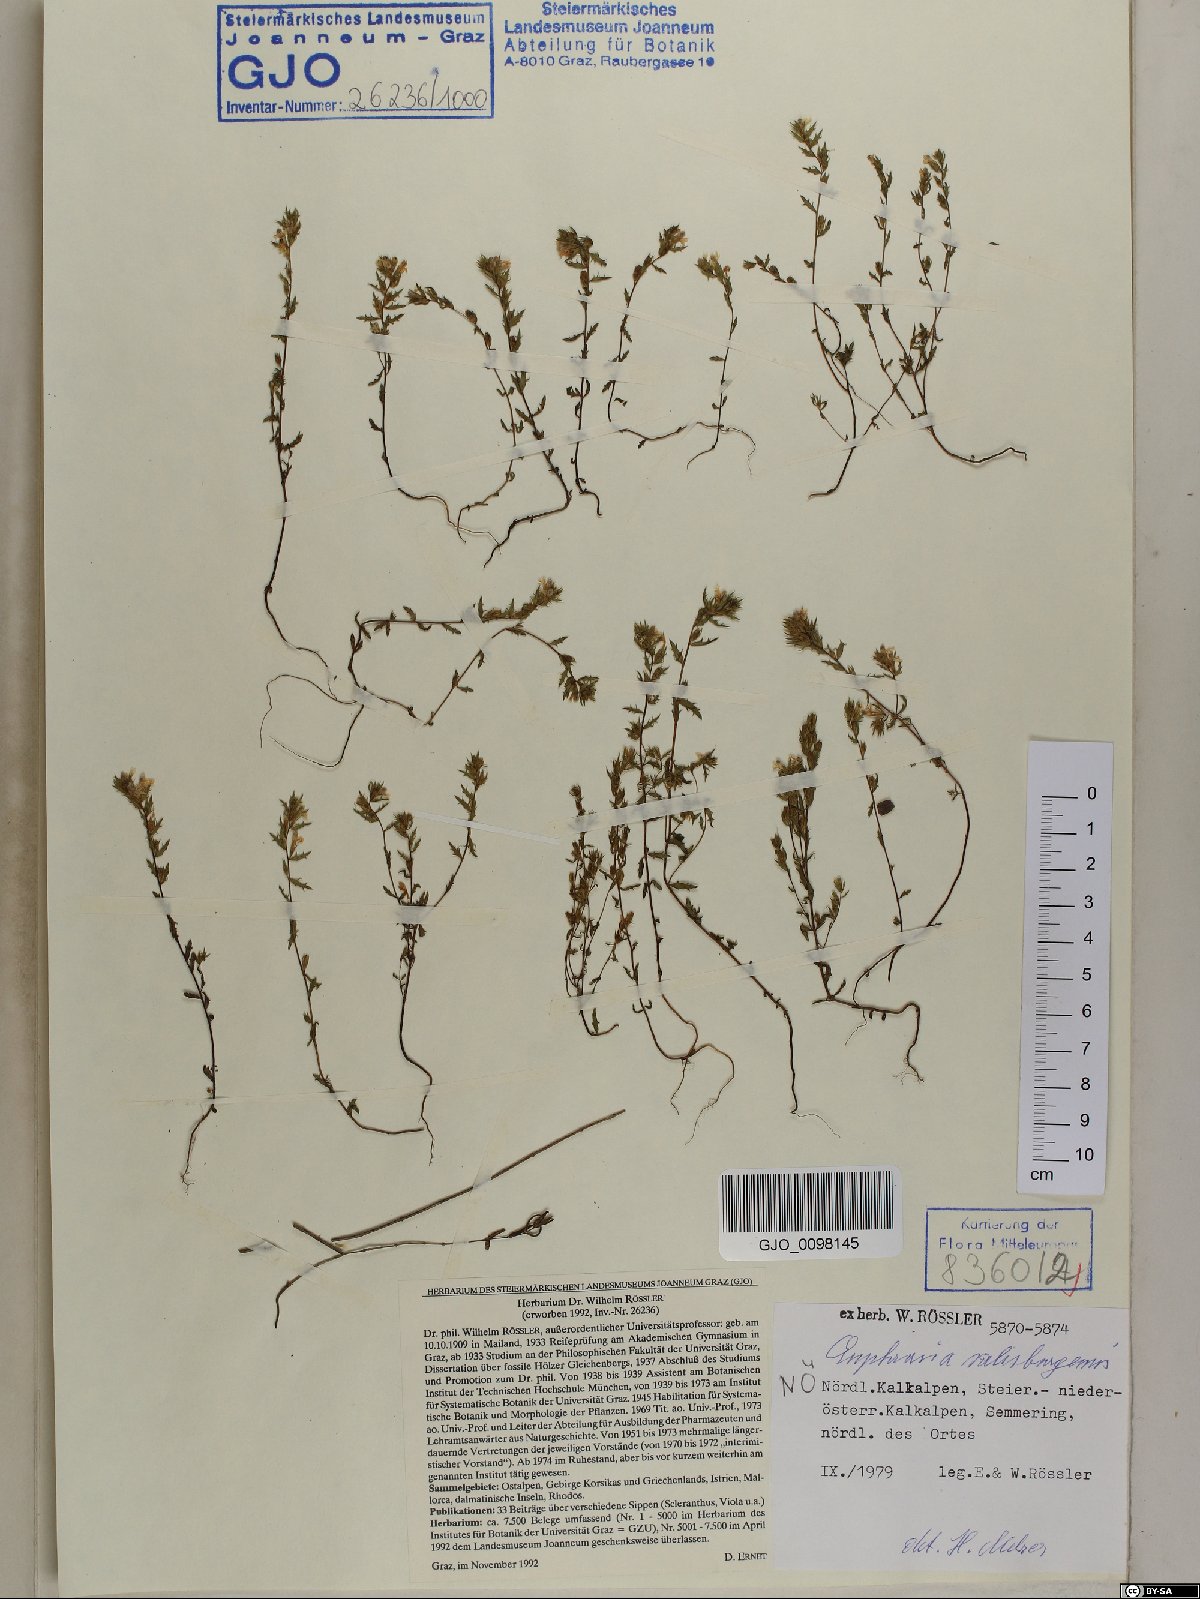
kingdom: Plantae
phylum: Tracheophyta
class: Magnoliopsida
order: Lamiales
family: Orobanchaceae
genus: Euphrasia
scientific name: Euphrasia salisburgensis
